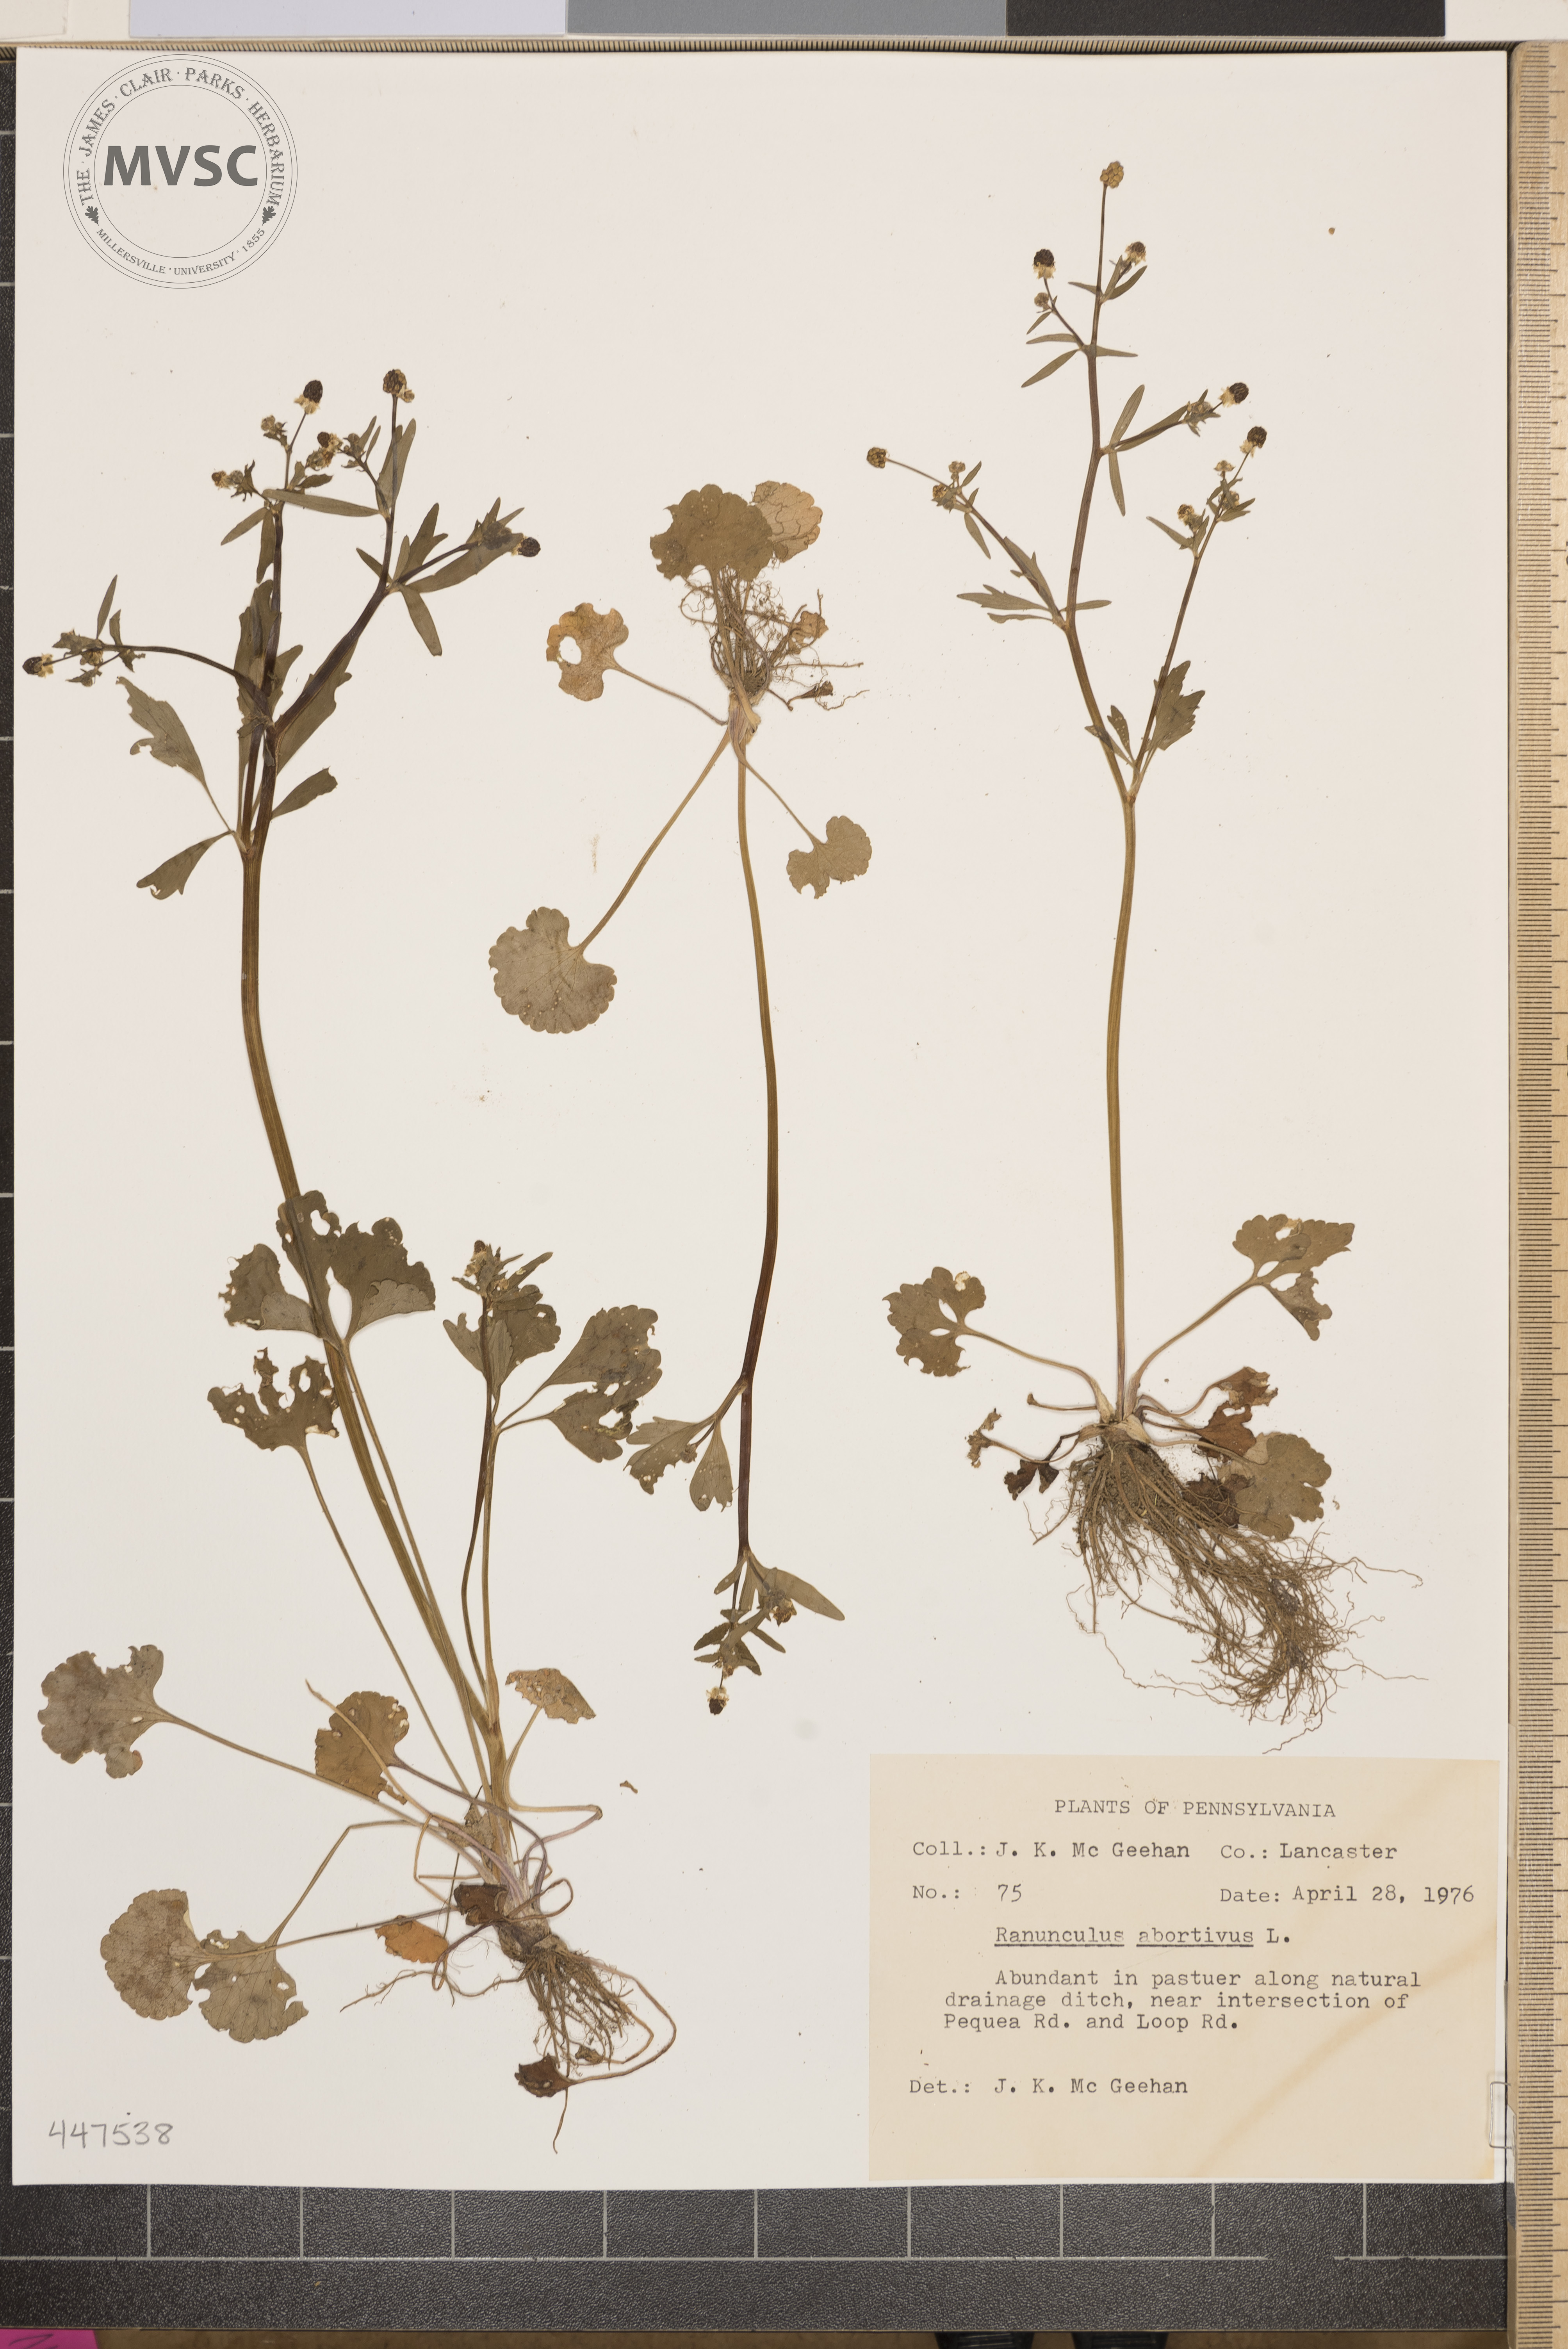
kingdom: Plantae
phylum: Tracheophyta
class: Magnoliopsida
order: Ranunculales
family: Ranunculaceae
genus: Ranunculus
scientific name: Ranunculus abortivus
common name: Early wood buttercup
